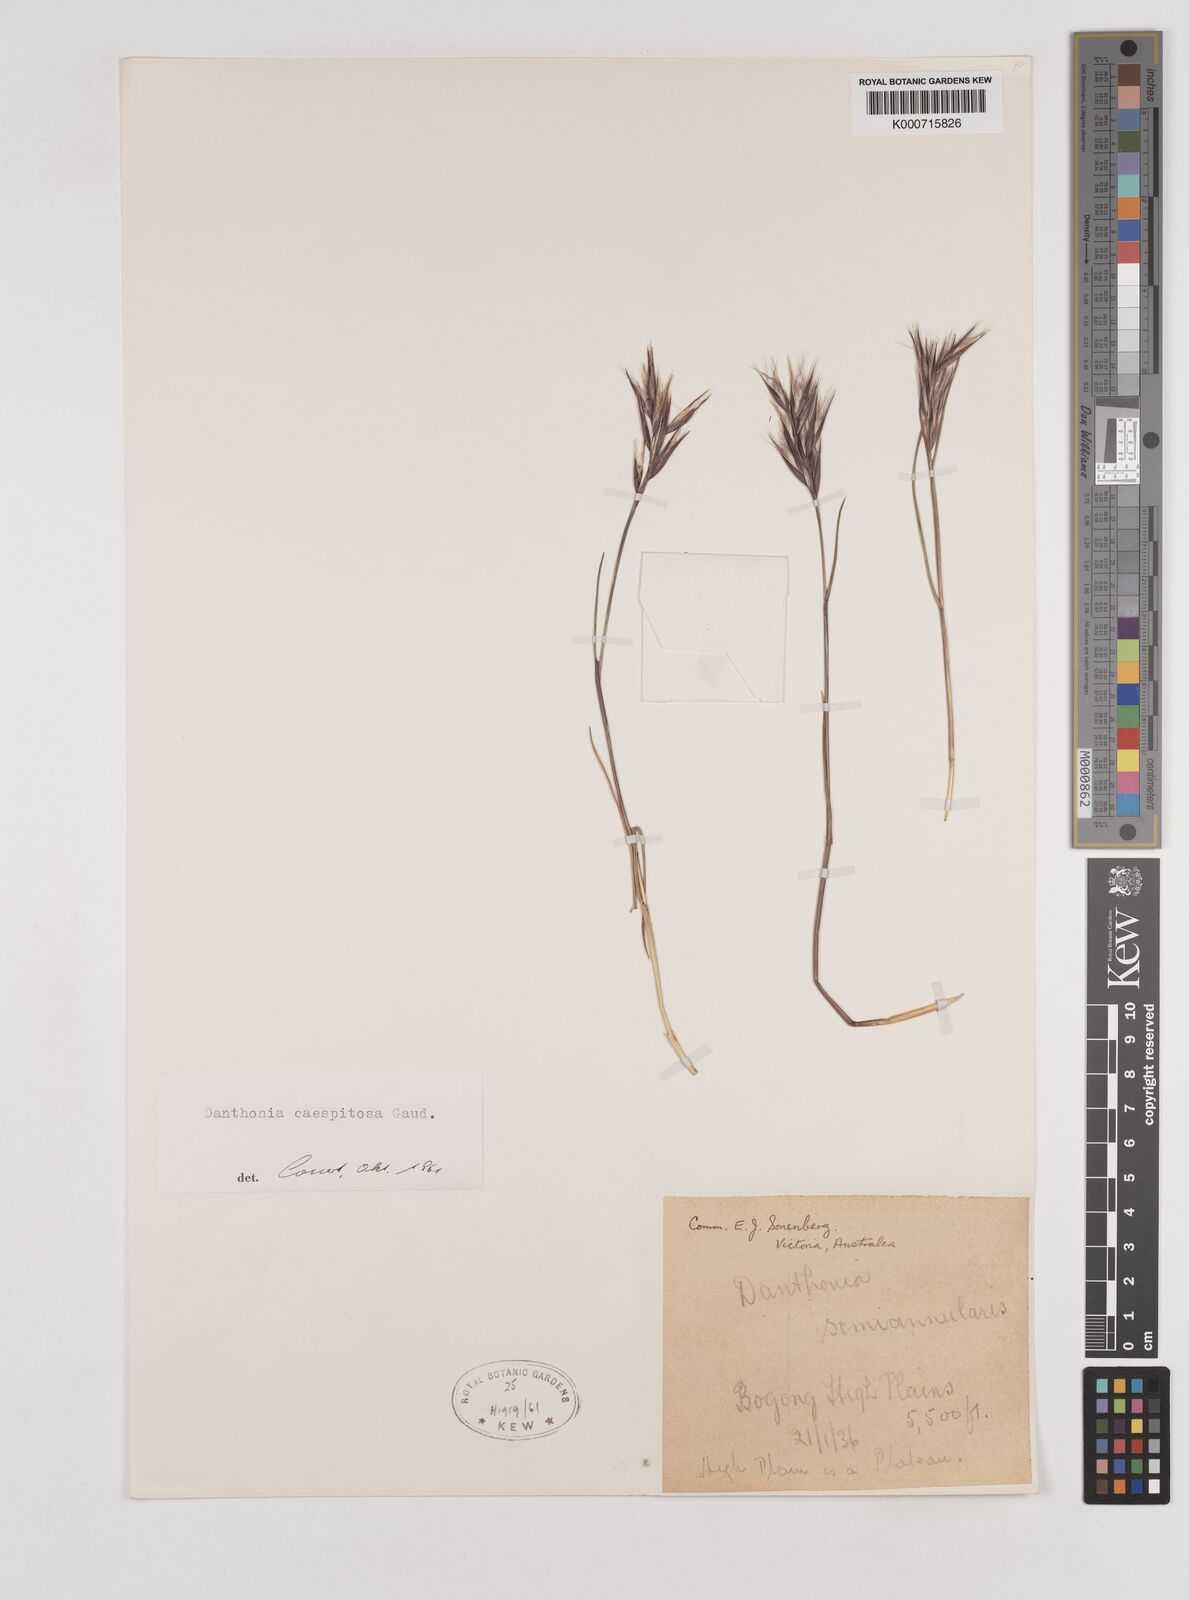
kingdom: Plantae
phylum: Tracheophyta
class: Liliopsida
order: Poales
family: Poaceae
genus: Rytidosperma
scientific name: Rytidosperma caespitosum
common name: Tufted wallaby grass
